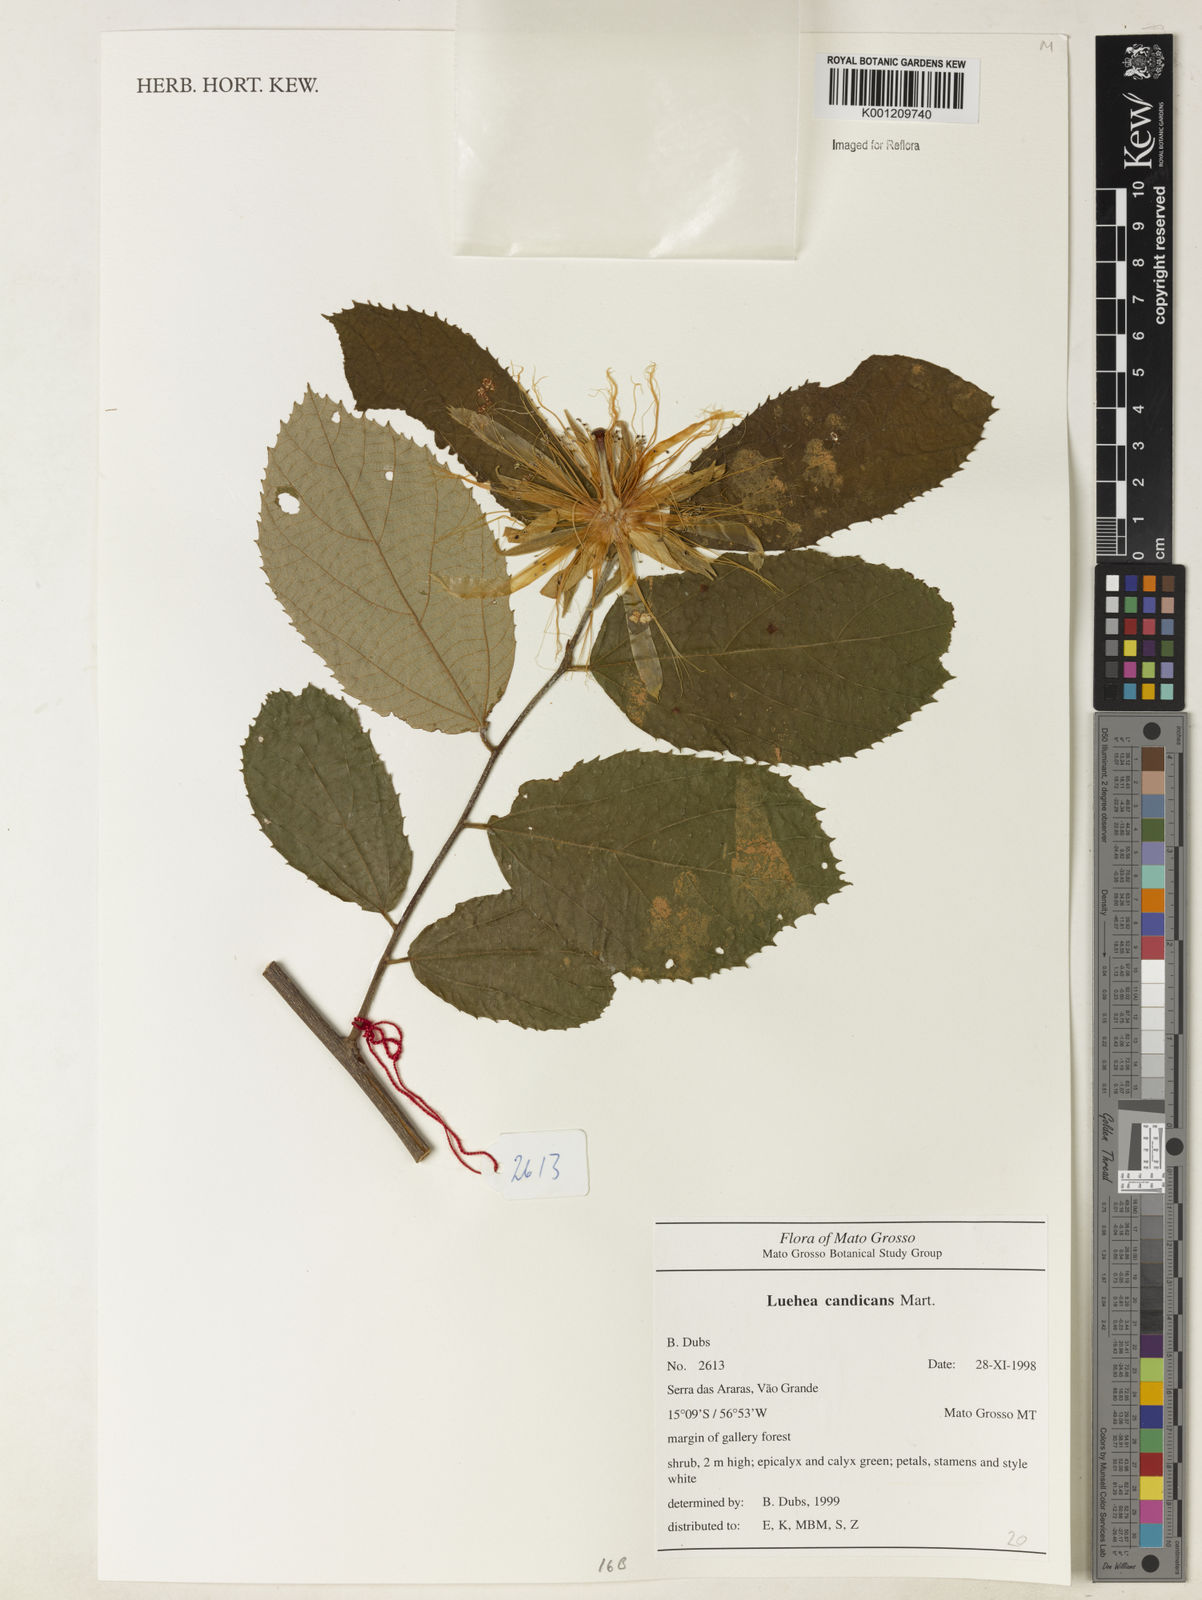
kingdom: Plantae
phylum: Tracheophyta
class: Magnoliopsida
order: Malvales
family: Malvaceae
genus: Luehea
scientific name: Luehea candicans
